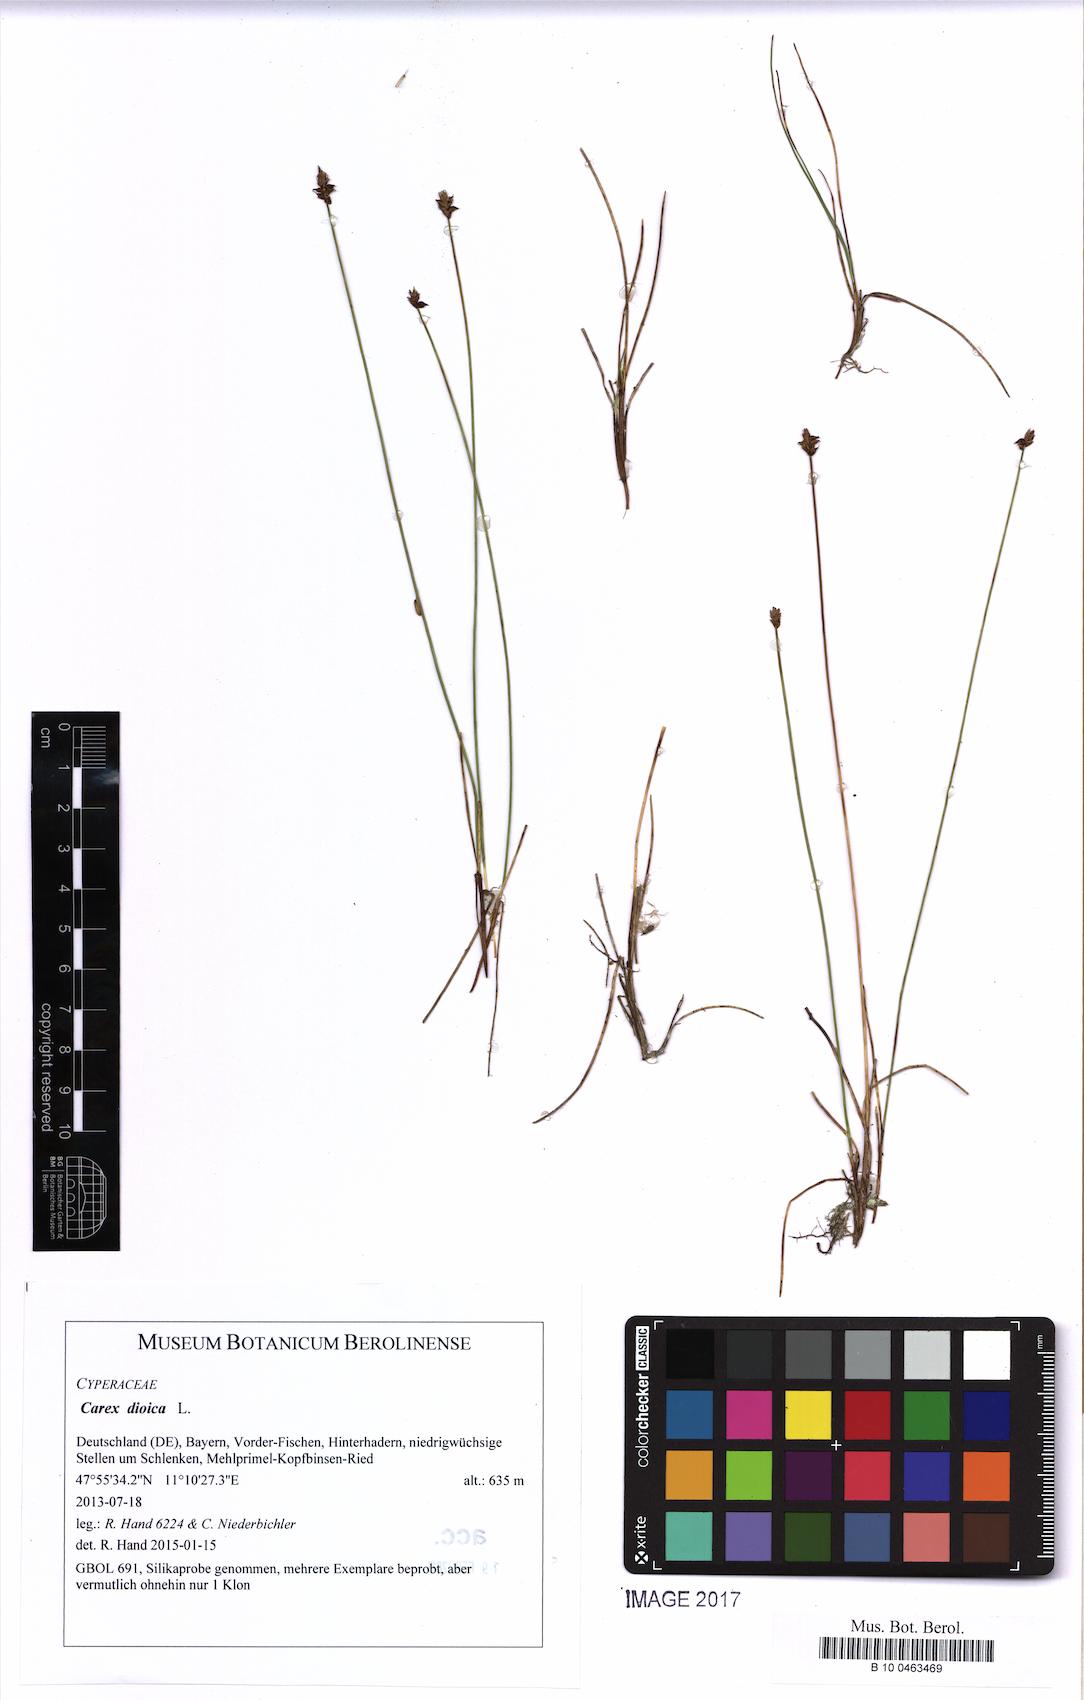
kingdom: Plantae
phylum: Tracheophyta
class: Liliopsida
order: Poales
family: Cyperaceae
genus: Carex
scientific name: Carex dioica
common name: Dioecious sedge
